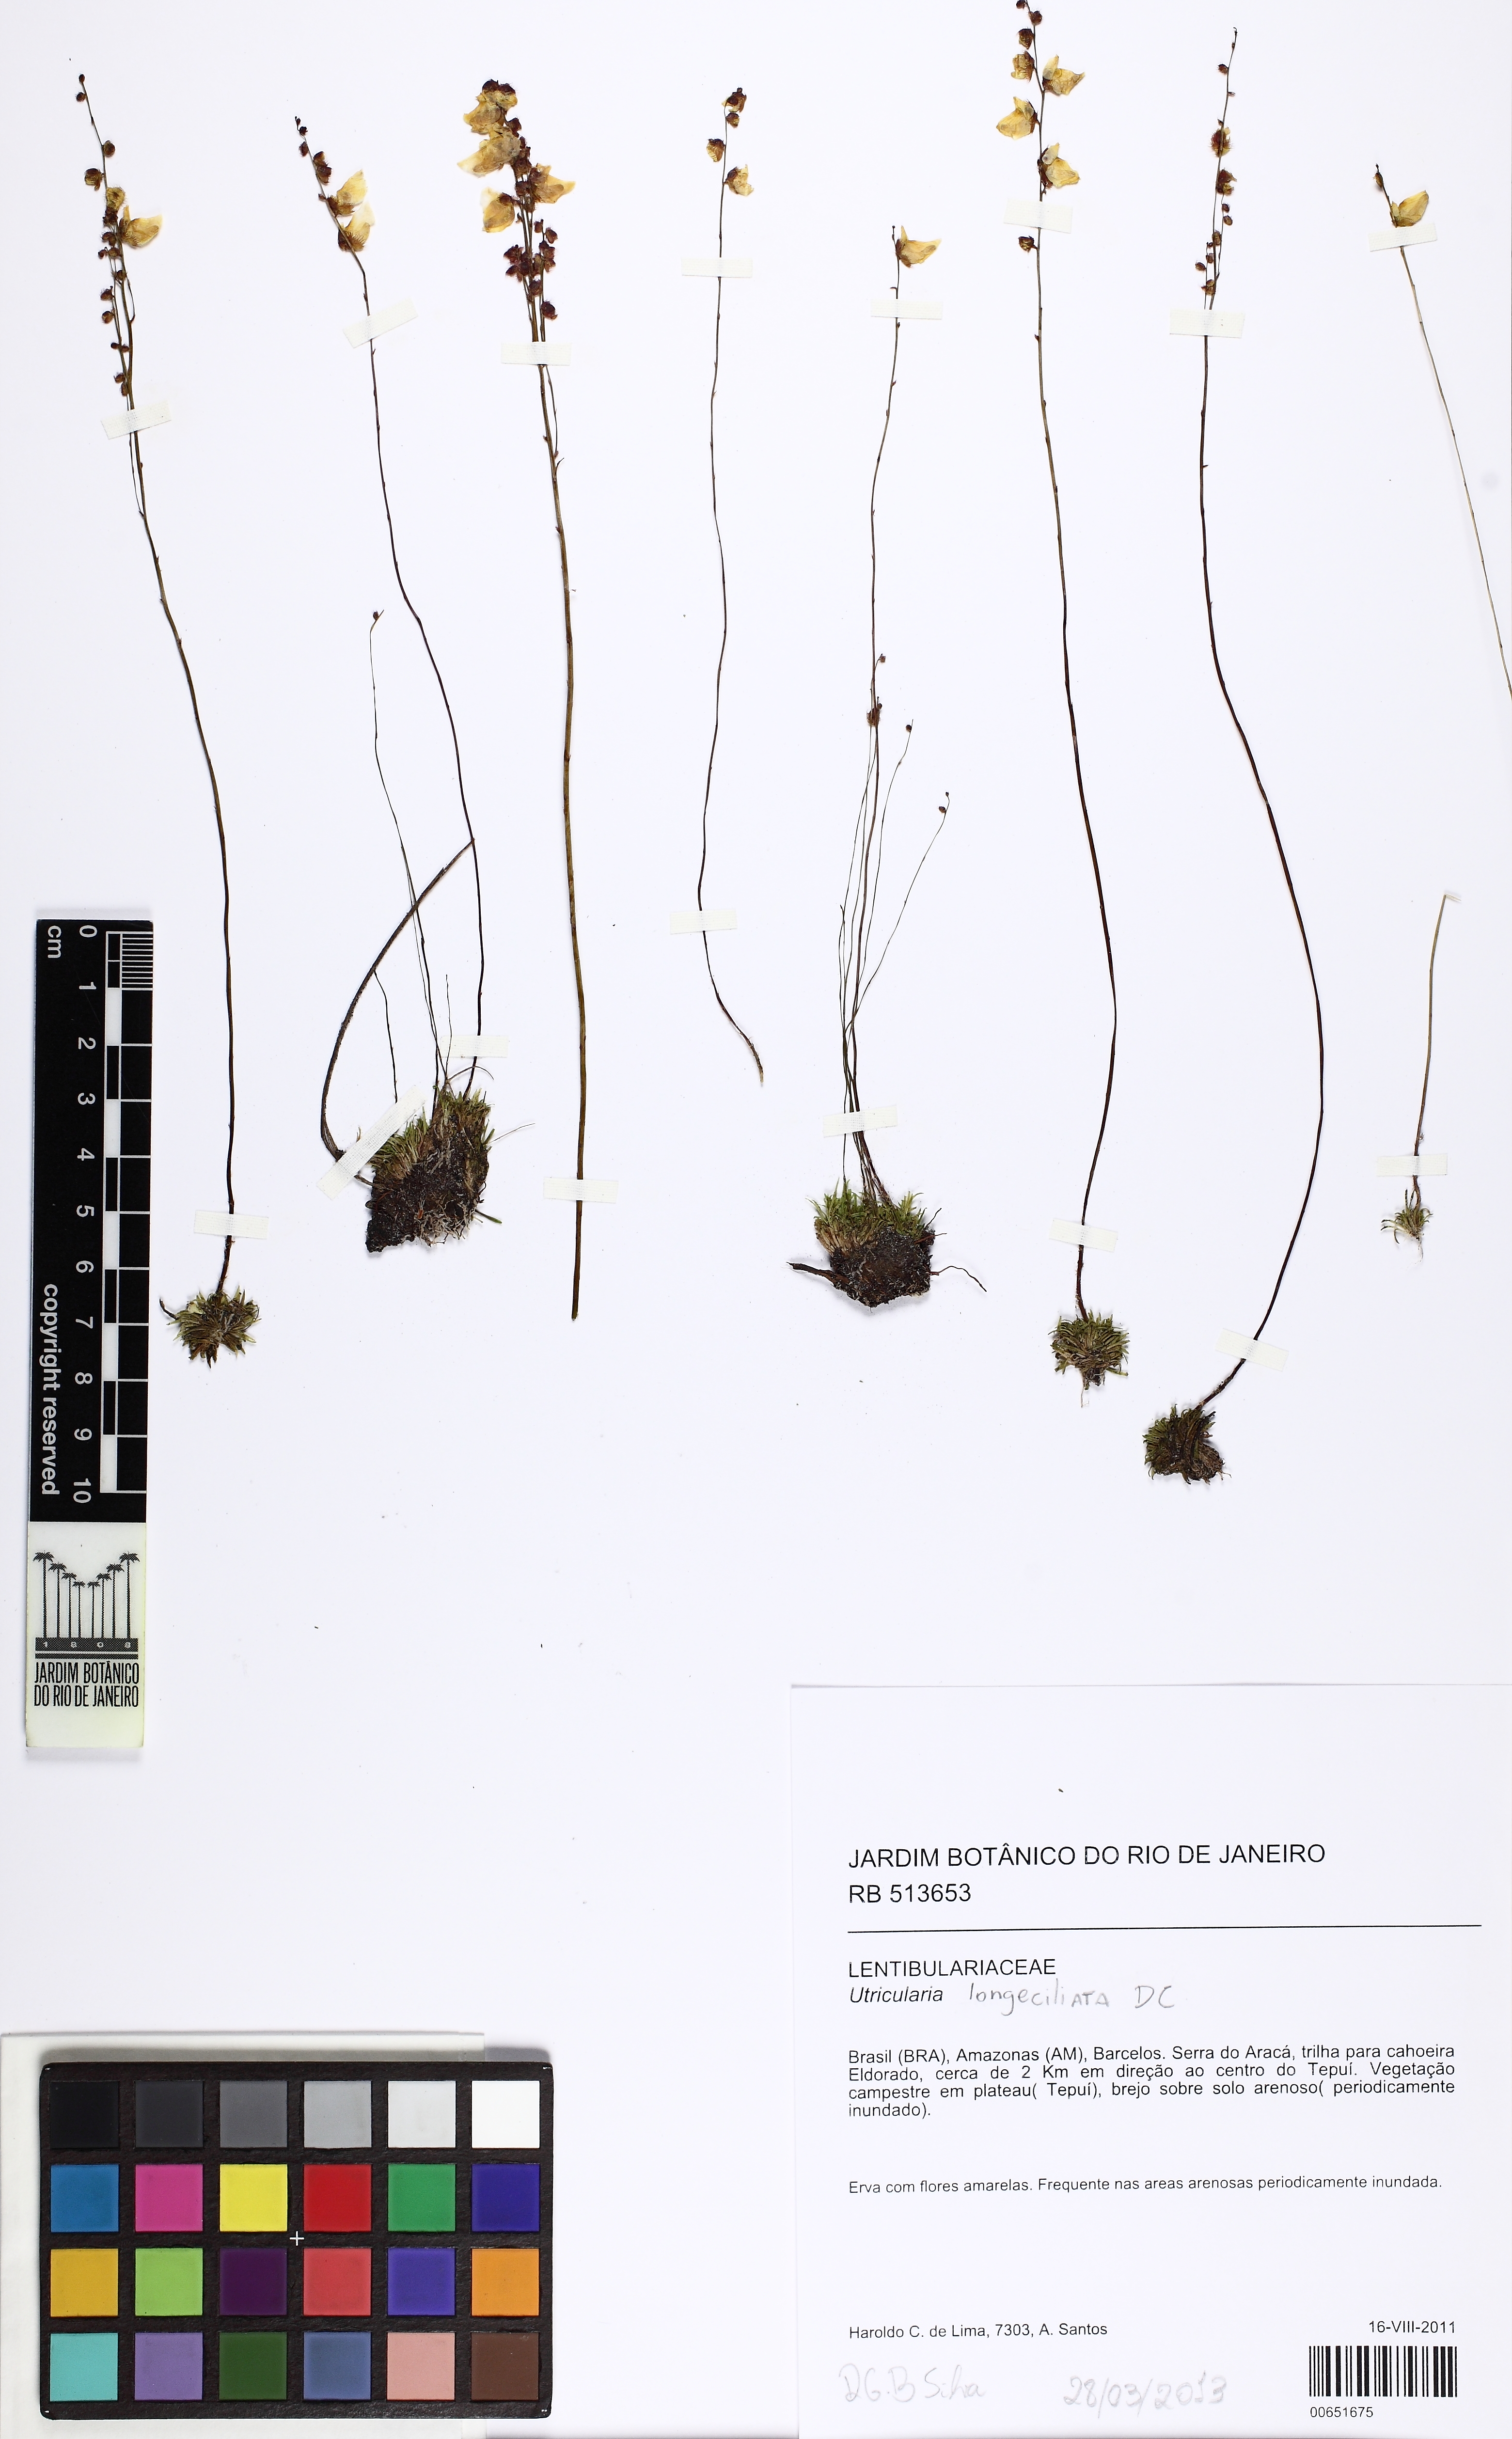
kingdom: Plantae
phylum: Tracheophyta
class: Magnoliopsida
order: Lamiales
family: Lentibulariaceae
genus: Utricularia
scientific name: Utricularia longeciliata
